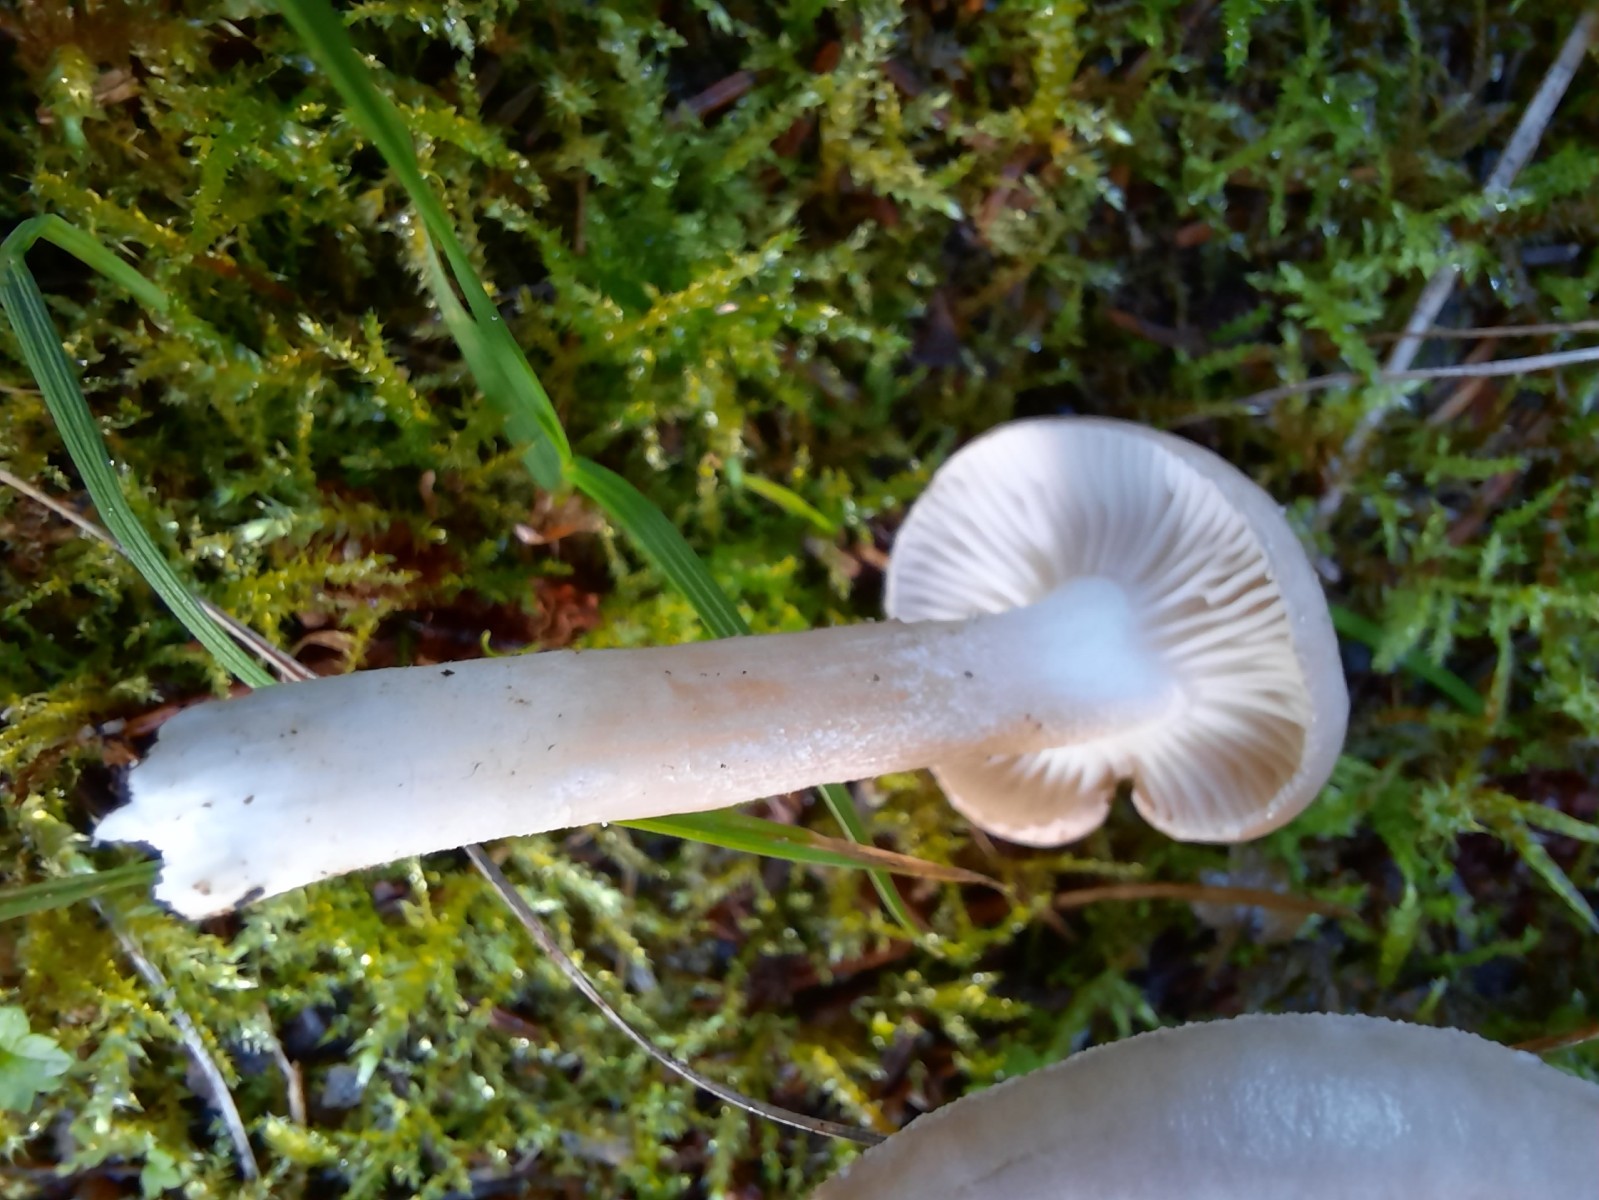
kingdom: Fungi
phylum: Basidiomycota
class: Agaricomycetes
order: Agaricales
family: Hygrophoraceae
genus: Hygrophorus
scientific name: Hygrophorus agathosmus
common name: vellugtende sneglehat
